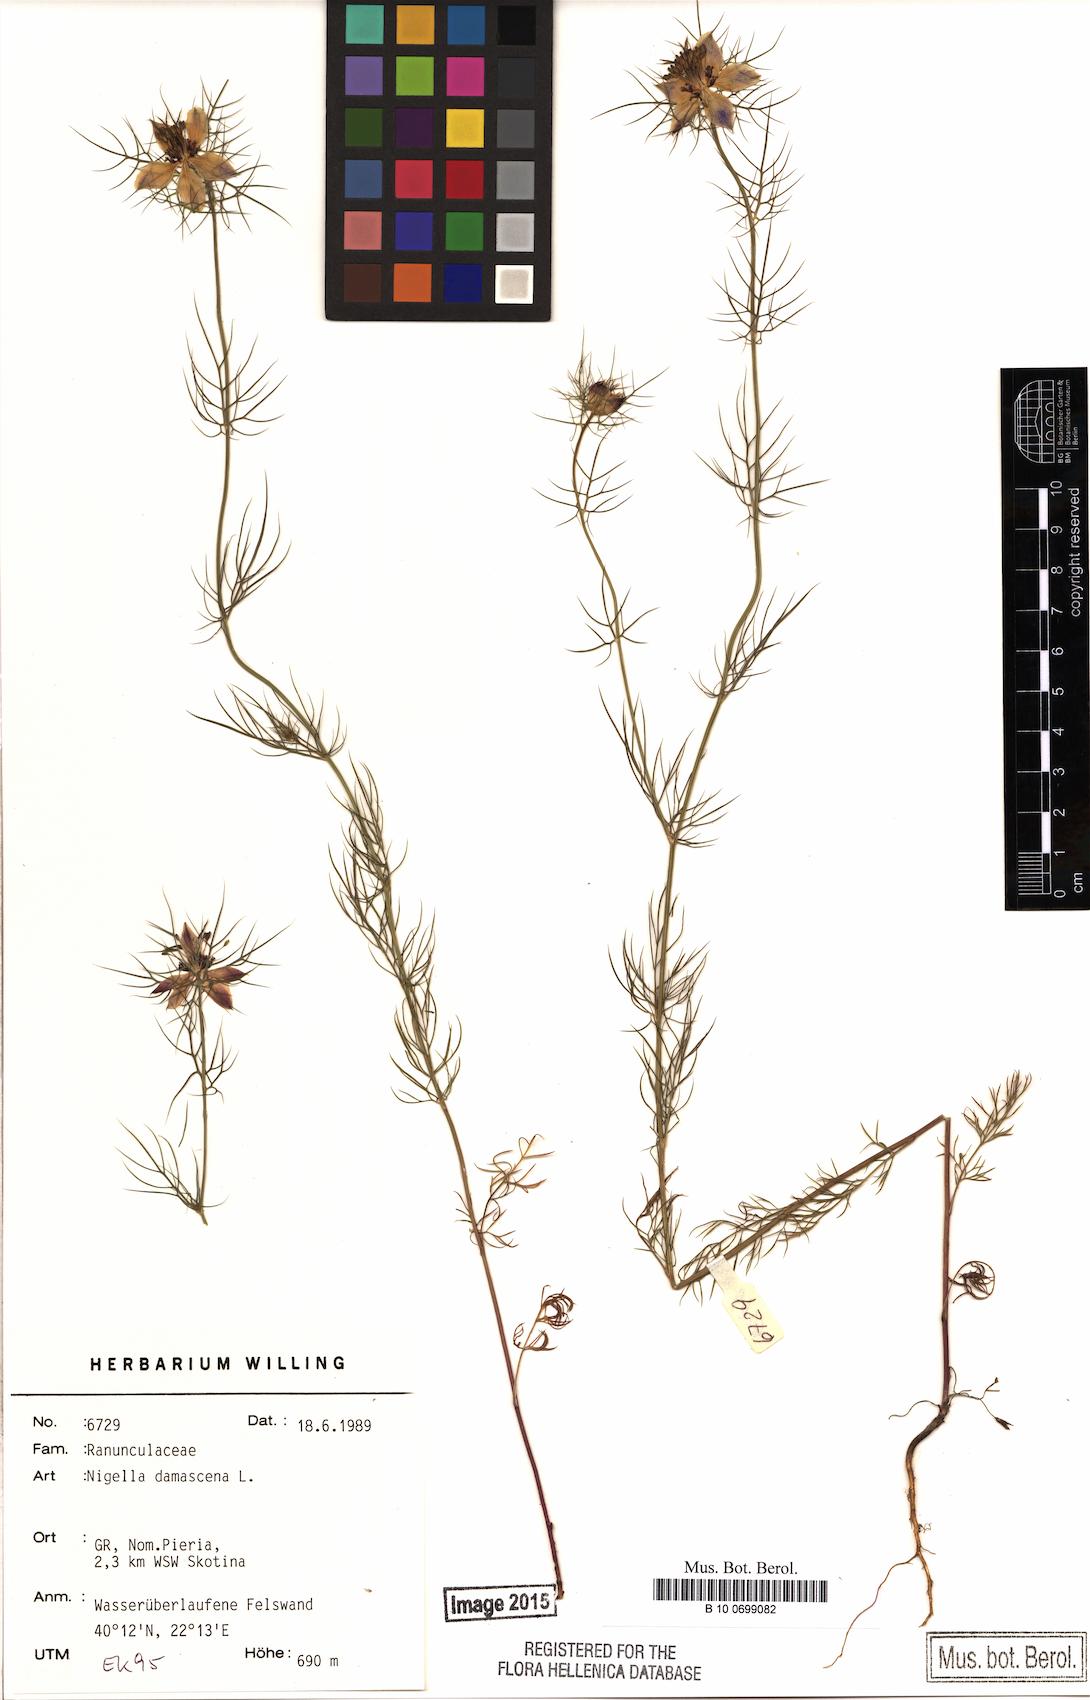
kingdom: Plantae
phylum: Tracheophyta
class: Magnoliopsida
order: Ranunculales
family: Ranunculaceae
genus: Nigella
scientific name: Nigella damascena
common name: Love-in-a-mist
